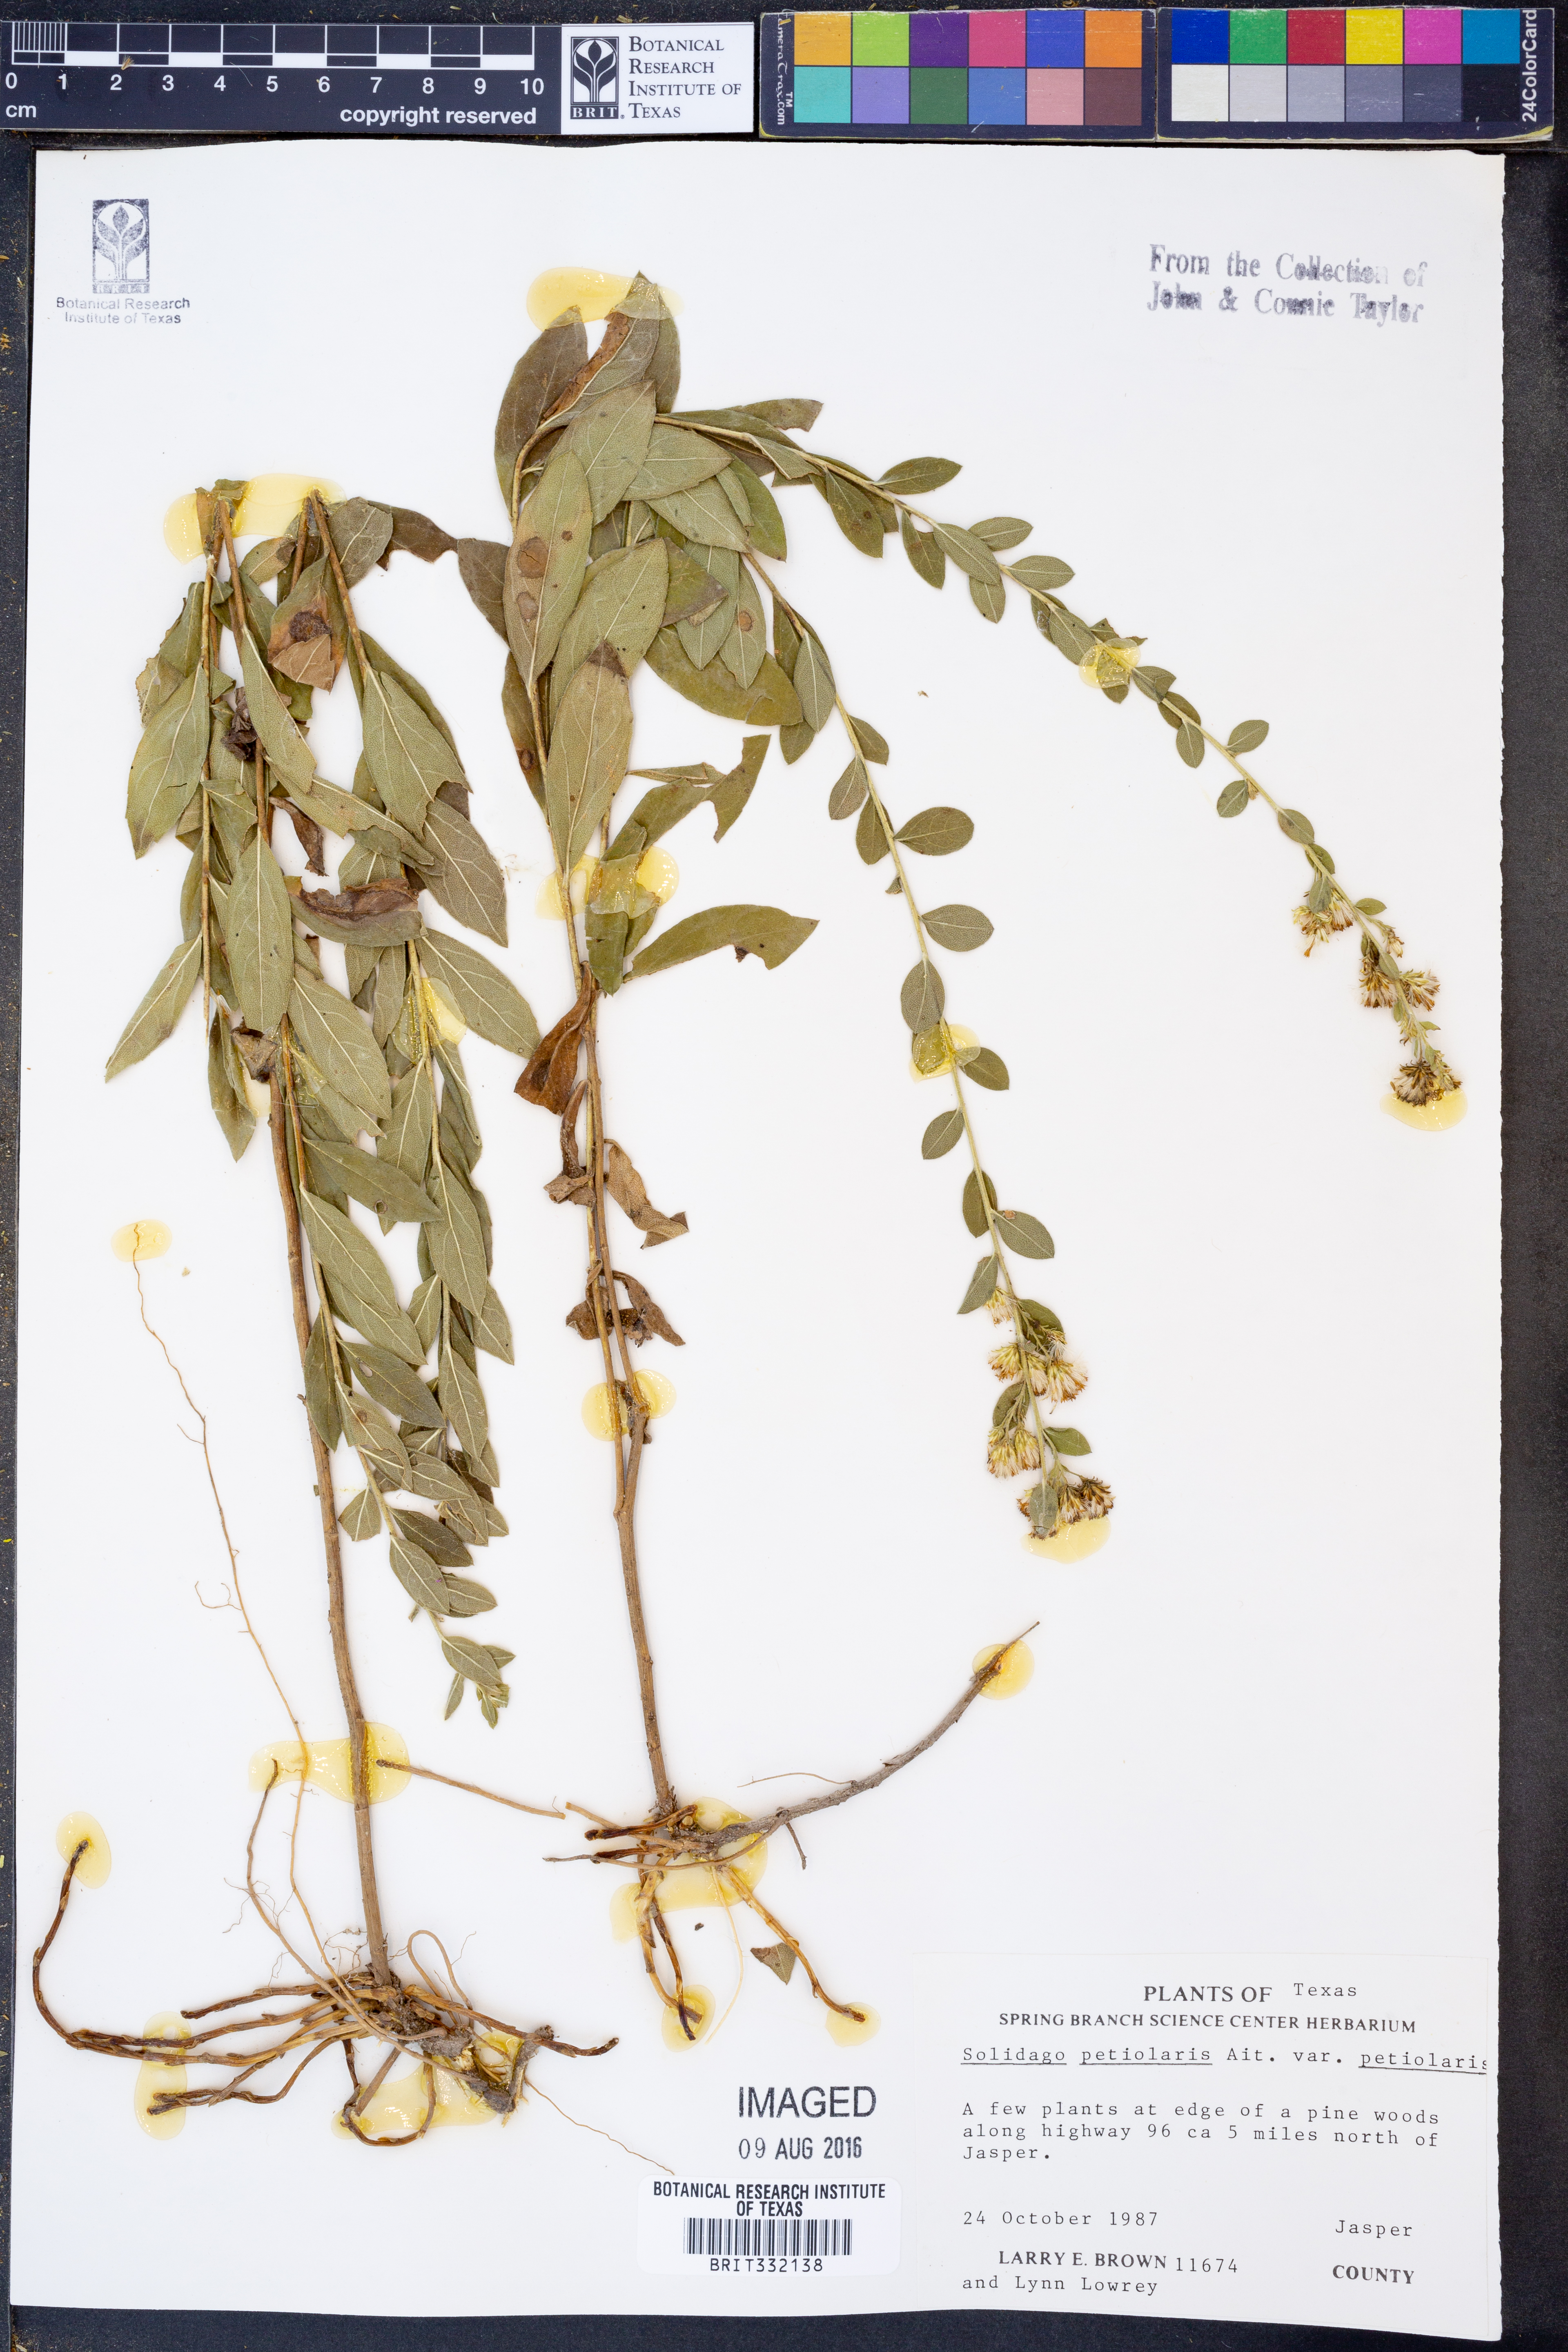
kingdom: Plantae
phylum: Tracheophyta
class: Magnoliopsida
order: Asterales
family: Asteraceae
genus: Solidago
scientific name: Solidago petiolaris
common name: Downy ragged goldenrod
